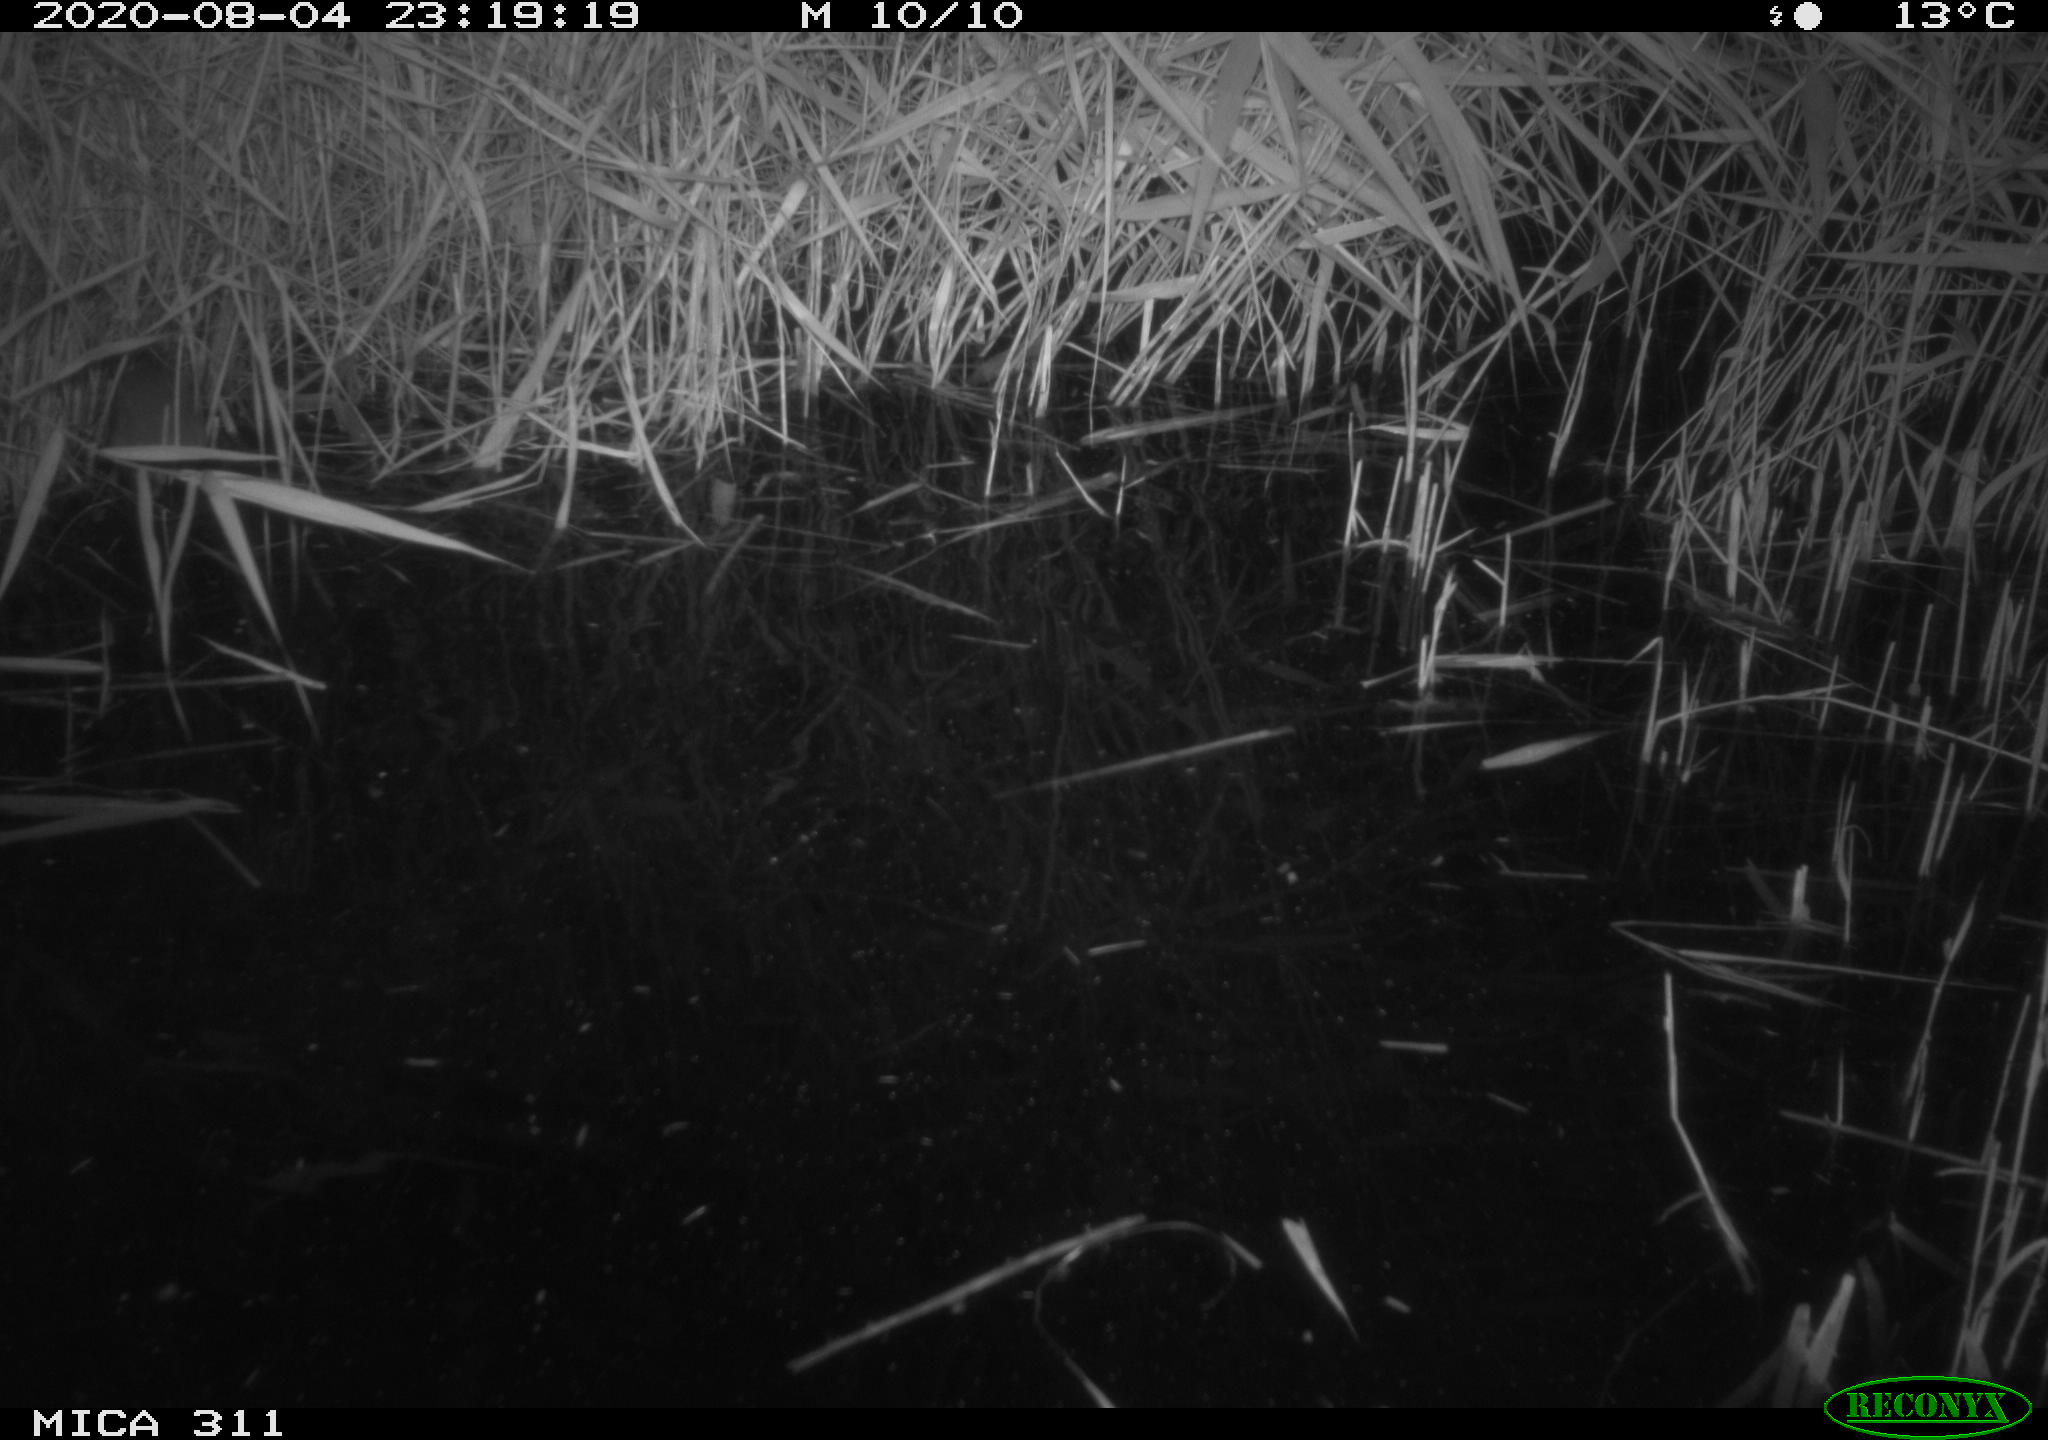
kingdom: Animalia
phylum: Chordata
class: Mammalia
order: Rodentia
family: Muridae
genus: Rattus
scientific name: Rattus norvegicus
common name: Brown rat
